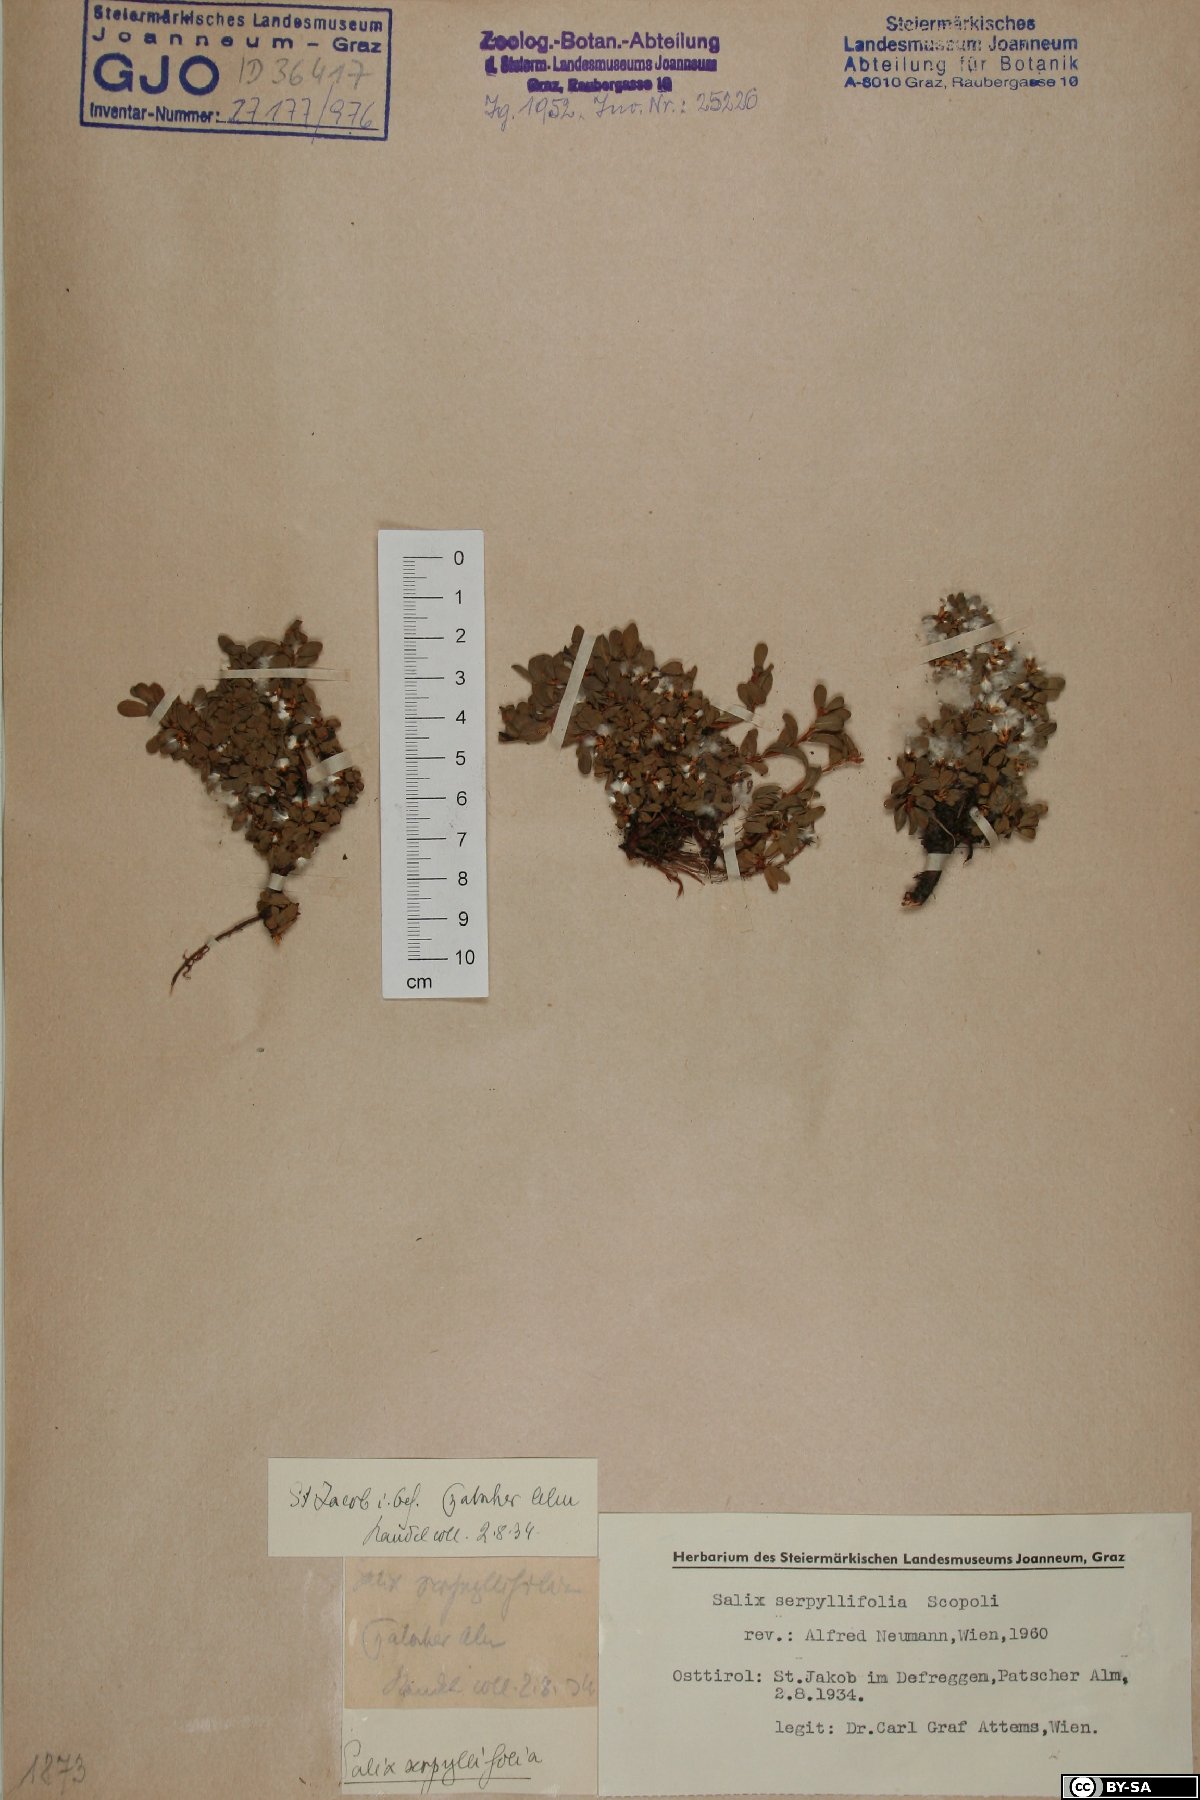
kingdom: Plantae
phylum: Tracheophyta
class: Magnoliopsida
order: Malpighiales
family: Salicaceae
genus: Salix
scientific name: Salix serpillifolia
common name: Thyme-leaf willow
